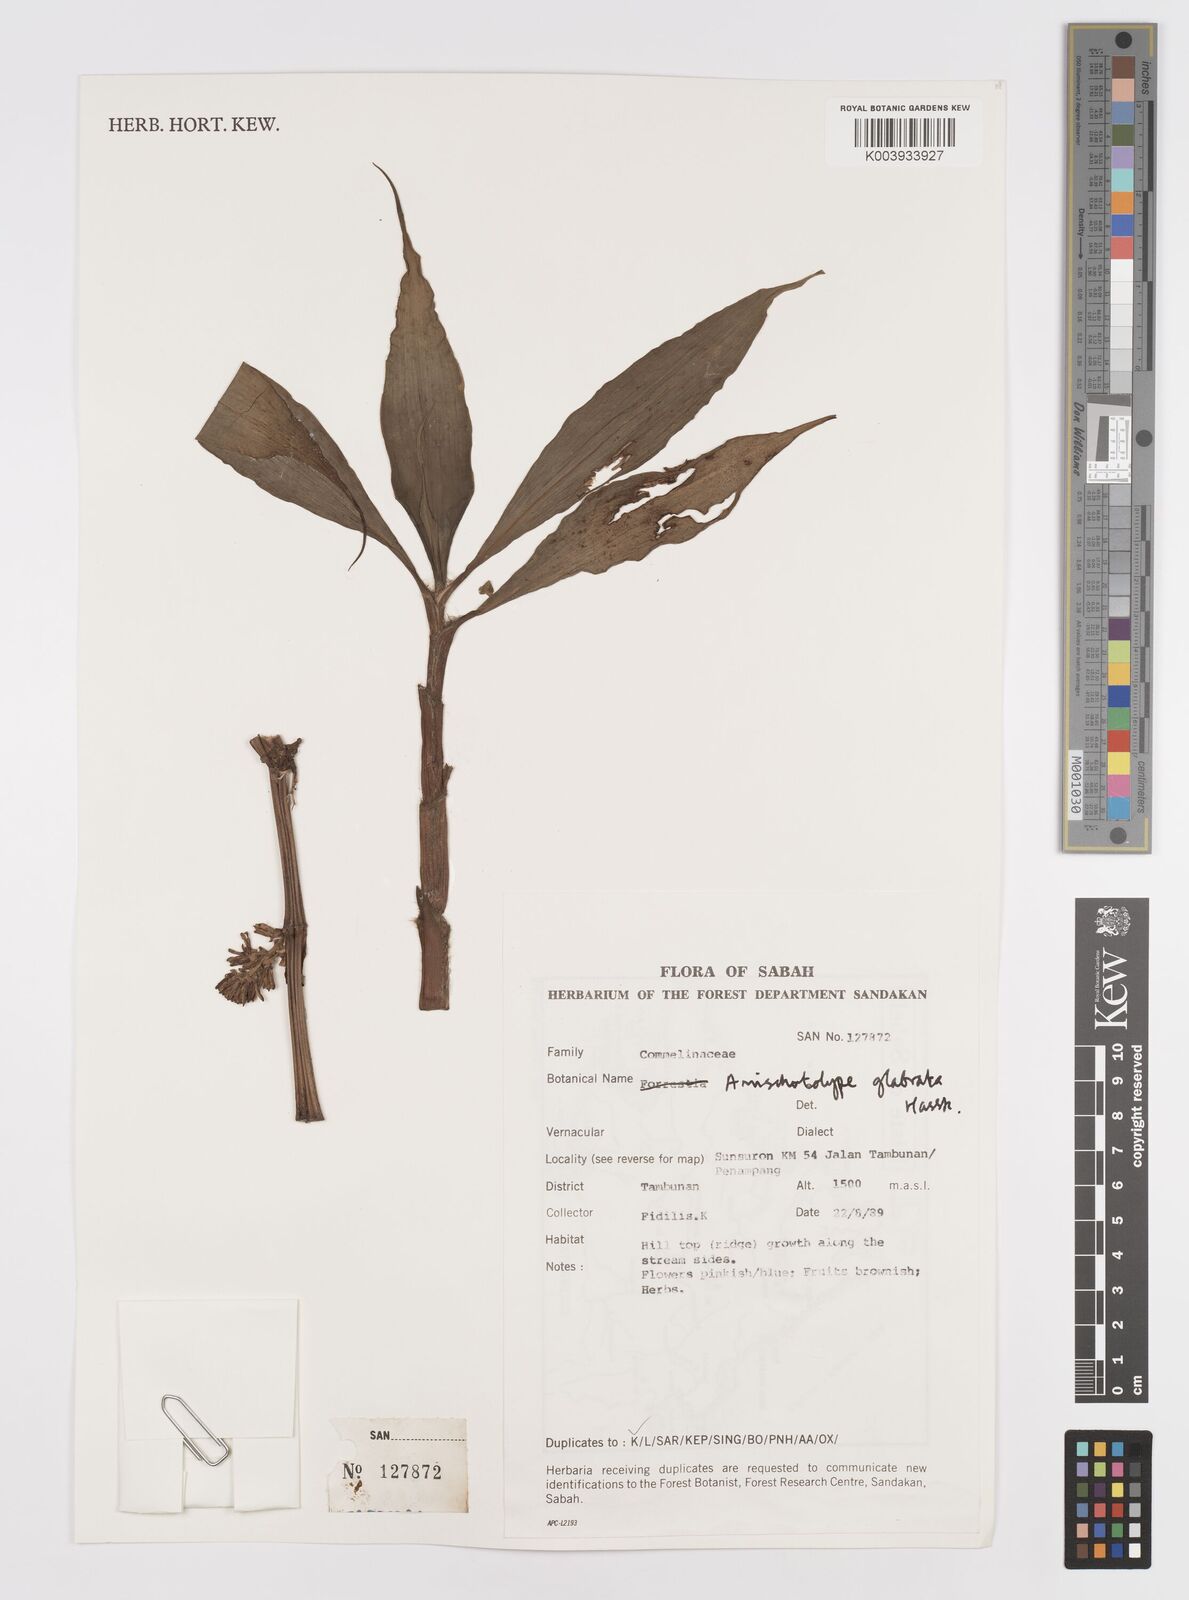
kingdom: Plantae
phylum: Tracheophyta
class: Liliopsida
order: Commelinales
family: Commelinaceae
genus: Amischotolype
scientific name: Amischotolype glabrata
